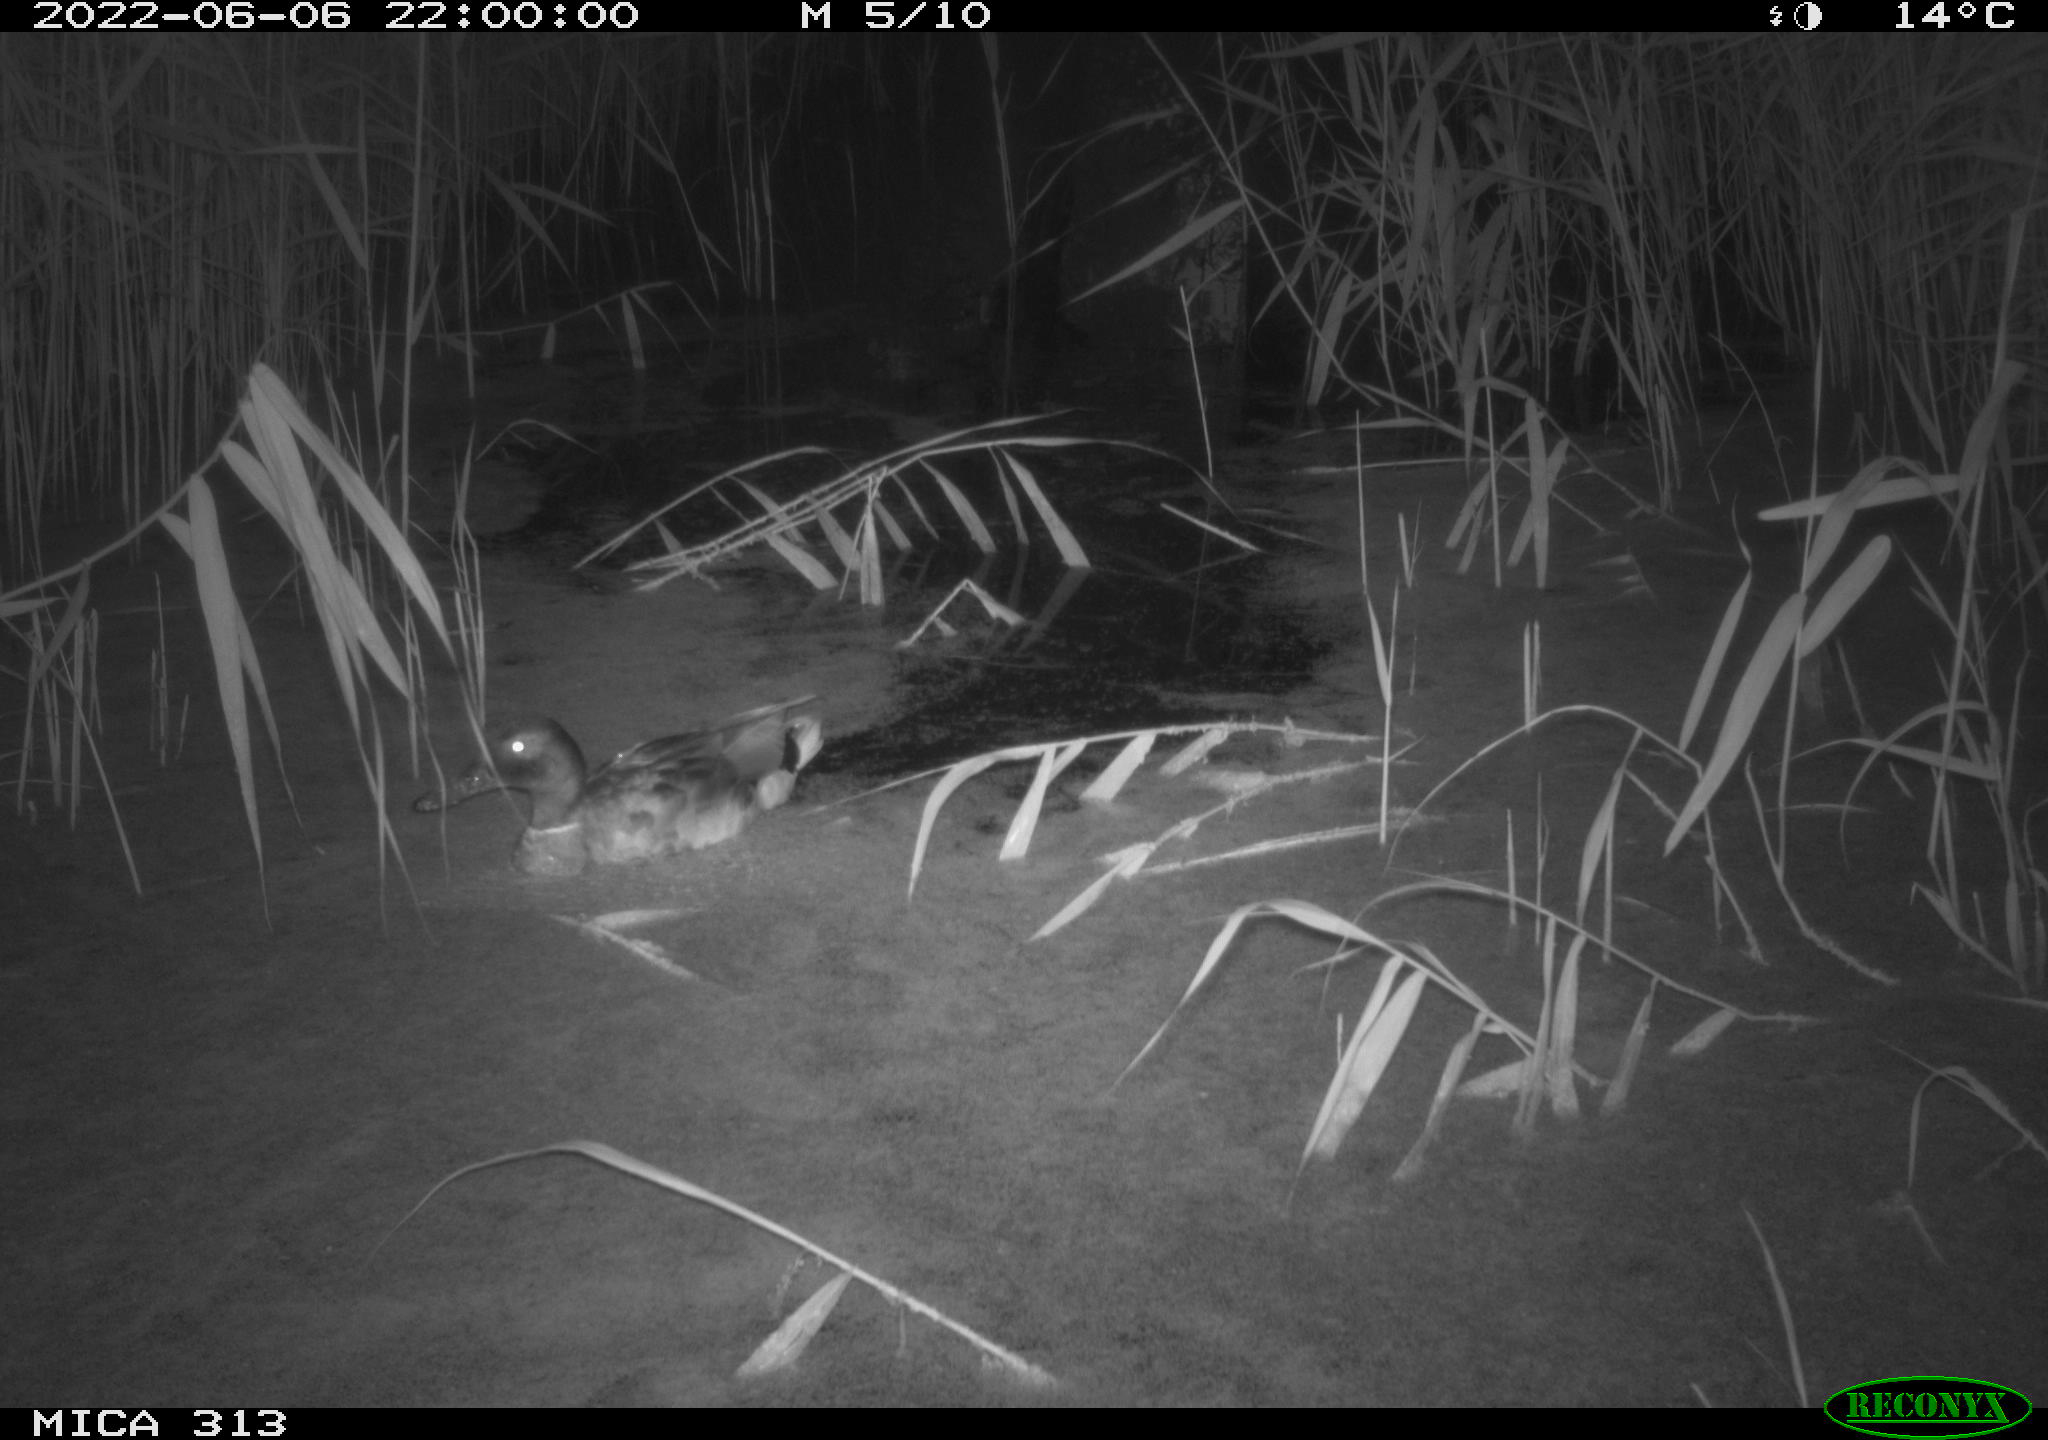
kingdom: Animalia
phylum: Chordata
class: Aves
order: Anseriformes
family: Anatidae
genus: Anas
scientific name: Anas platyrhynchos
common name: Mallard
